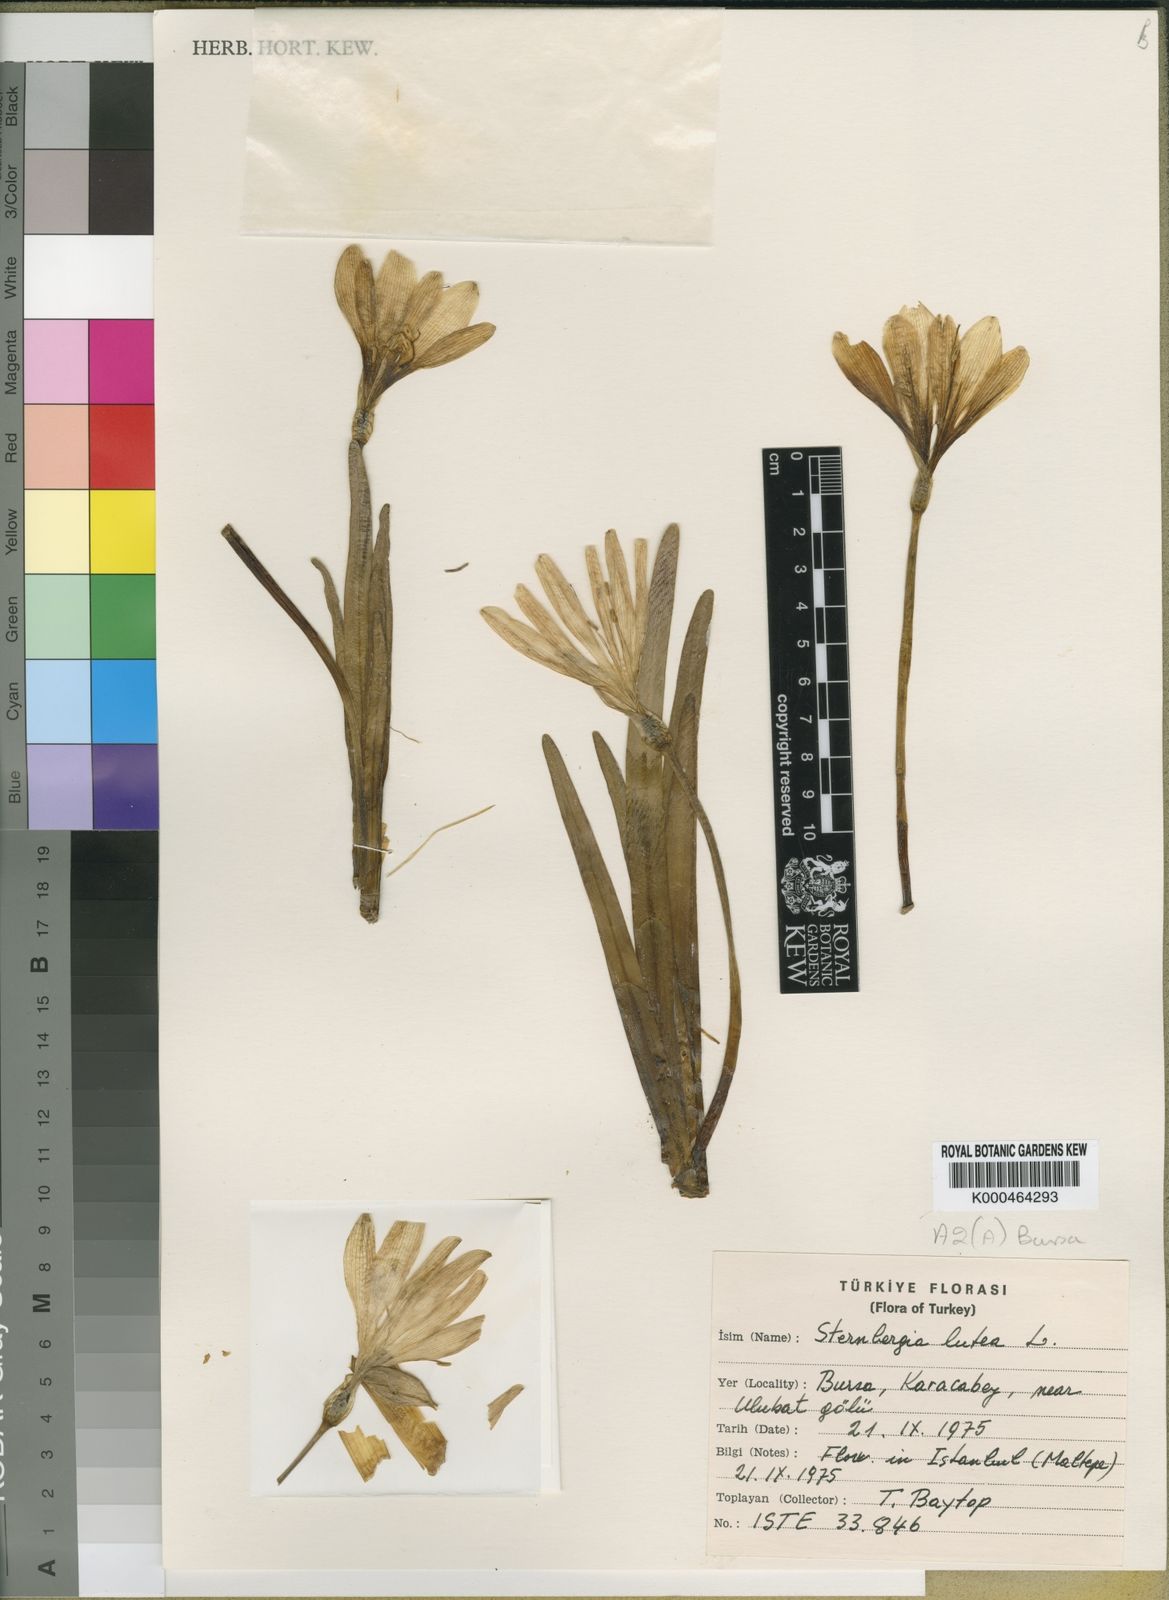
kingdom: Plantae
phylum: Tracheophyta
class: Liliopsida
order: Asparagales
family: Amaryllidaceae
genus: Sternbergia
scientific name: Sternbergia
